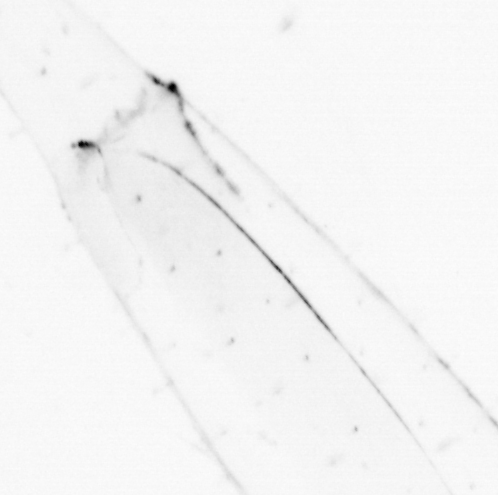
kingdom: Chromista
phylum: Ochrophyta
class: Bacillariophyceae
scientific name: Bacillariophyceae
